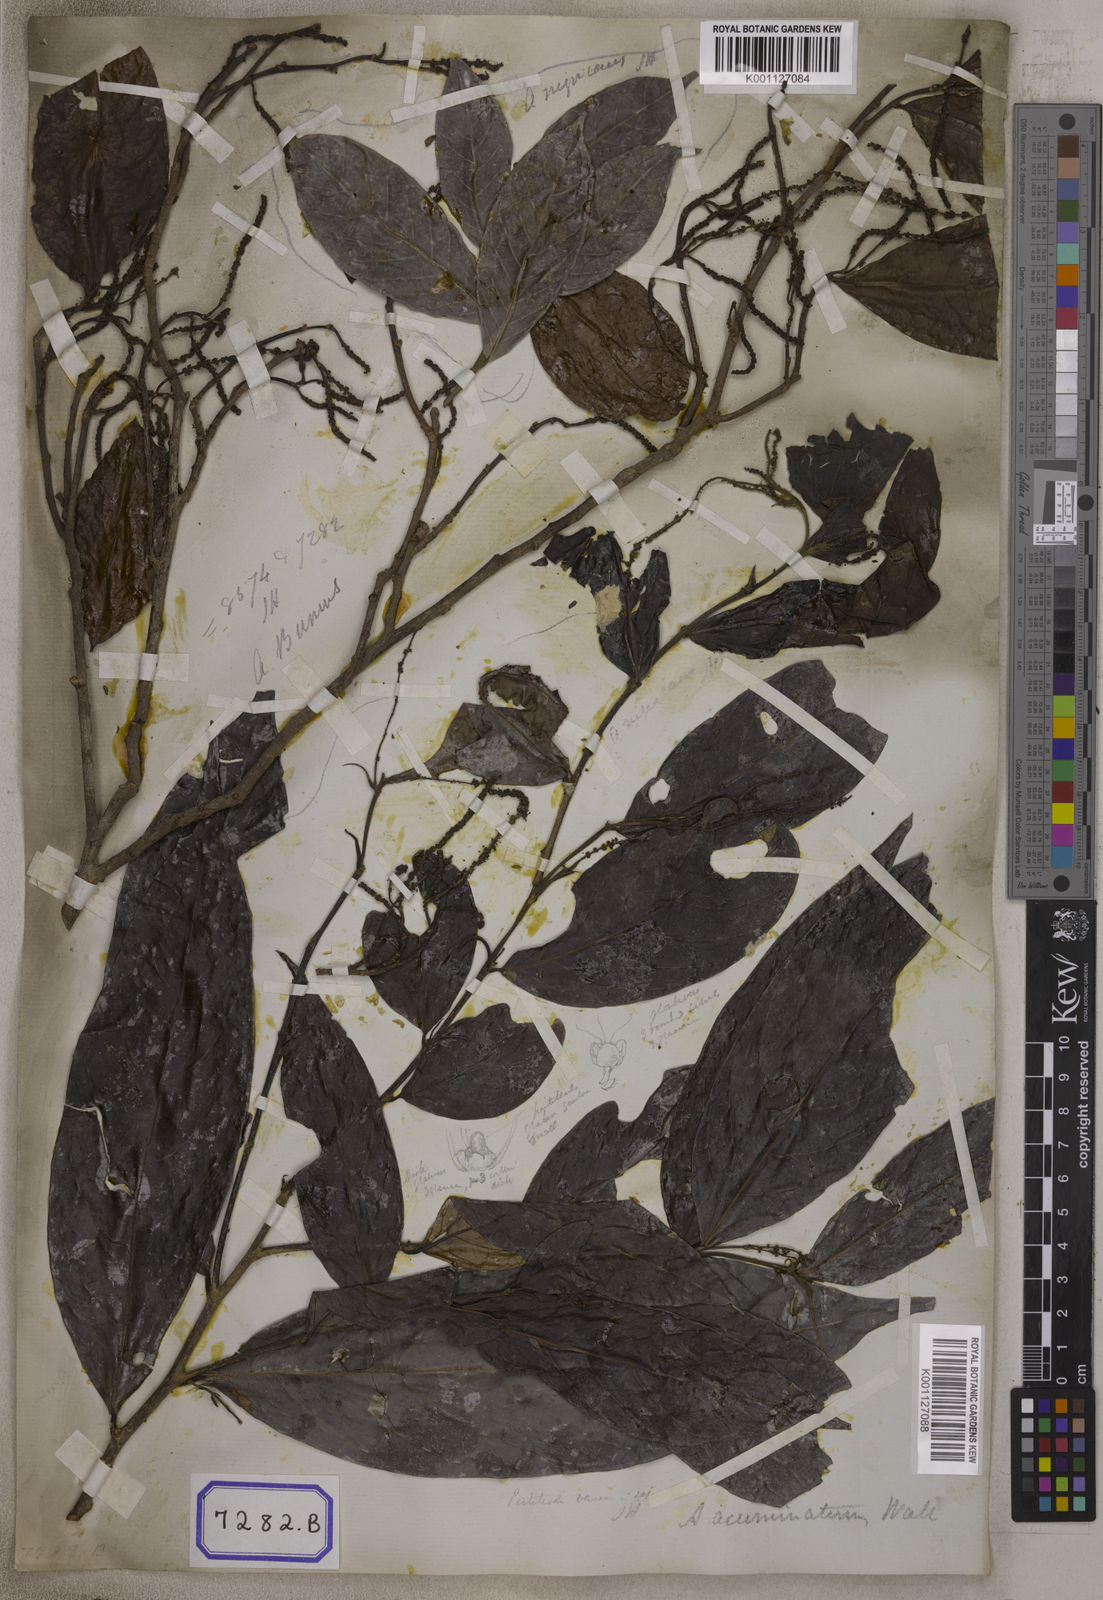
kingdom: Plantae
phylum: Tracheophyta
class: Magnoliopsida
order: Malpighiales
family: Phyllanthaceae
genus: Antidesma
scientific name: Antidesma nigricans
